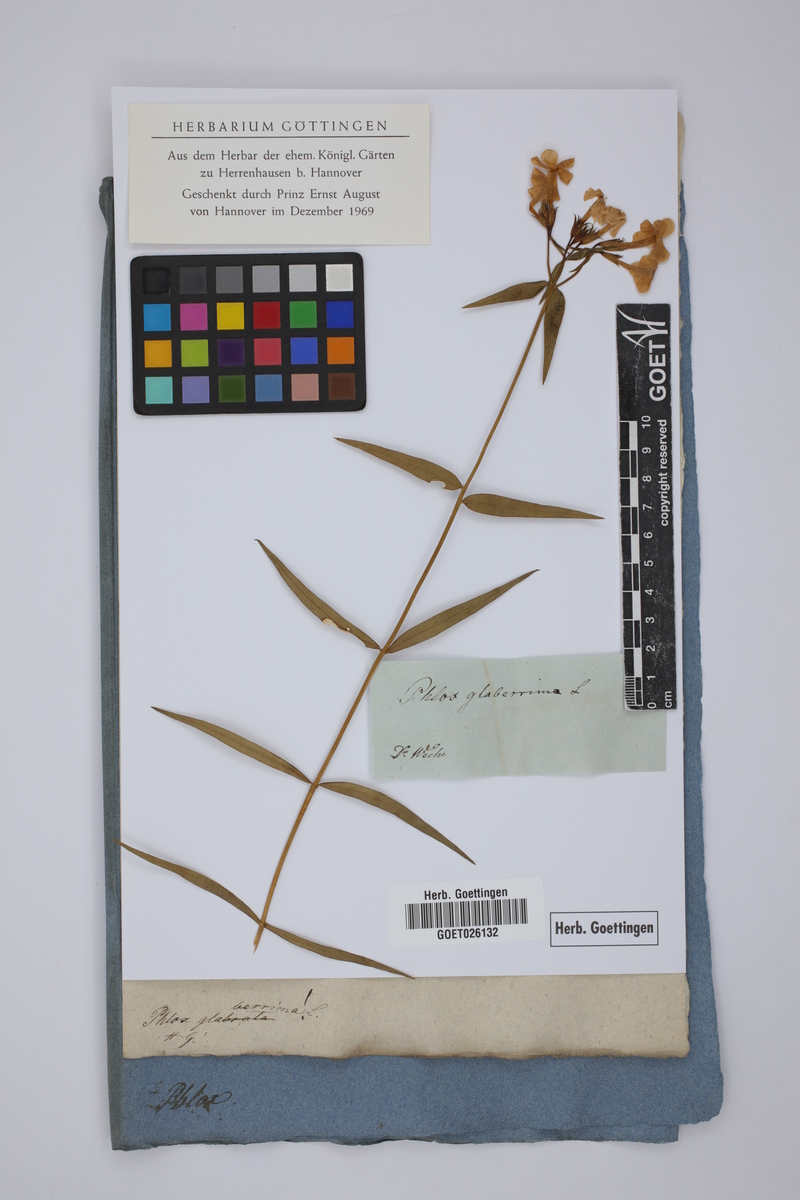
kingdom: Plantae
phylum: Tracheophyta
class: Magnoliopsida
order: Ericales
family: Polemoniaceae
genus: Phlox
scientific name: Phlox glaberrima
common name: Smooth phlox
